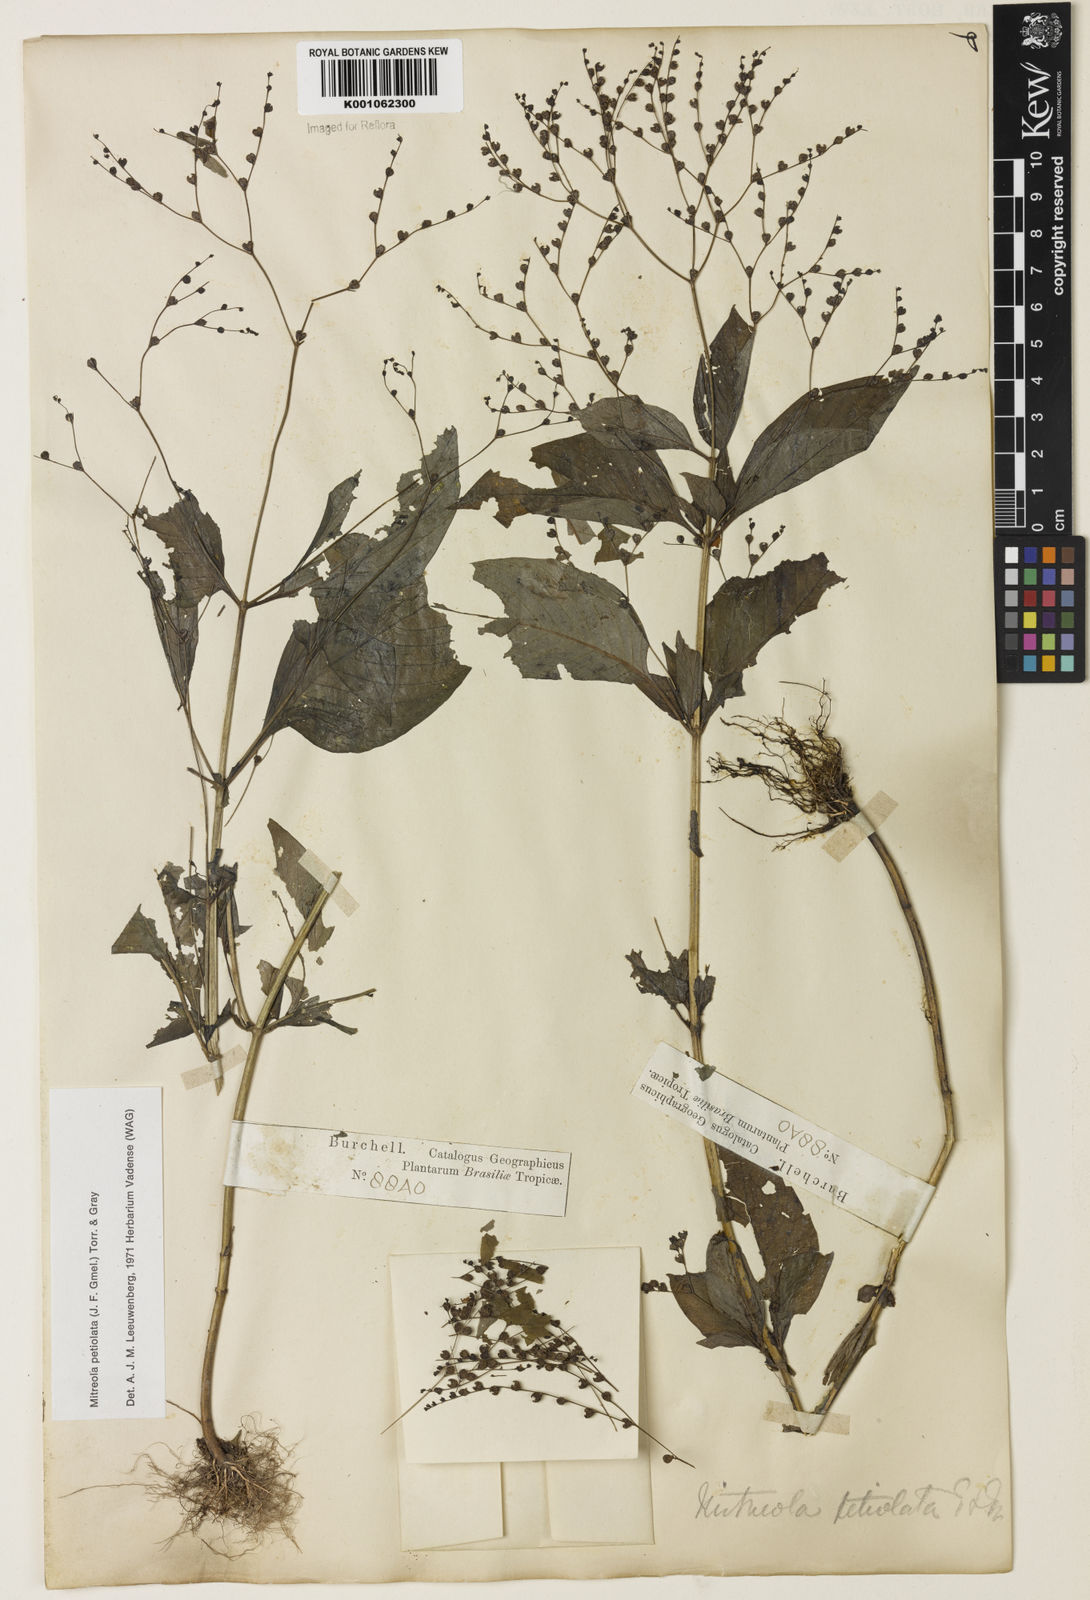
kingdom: Plantae
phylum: Tracheophyta
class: Magnoliopsida
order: Gentianales
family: Loganiaceae
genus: Mitreola
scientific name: Mitreola petiolata
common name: Lax hornpod
